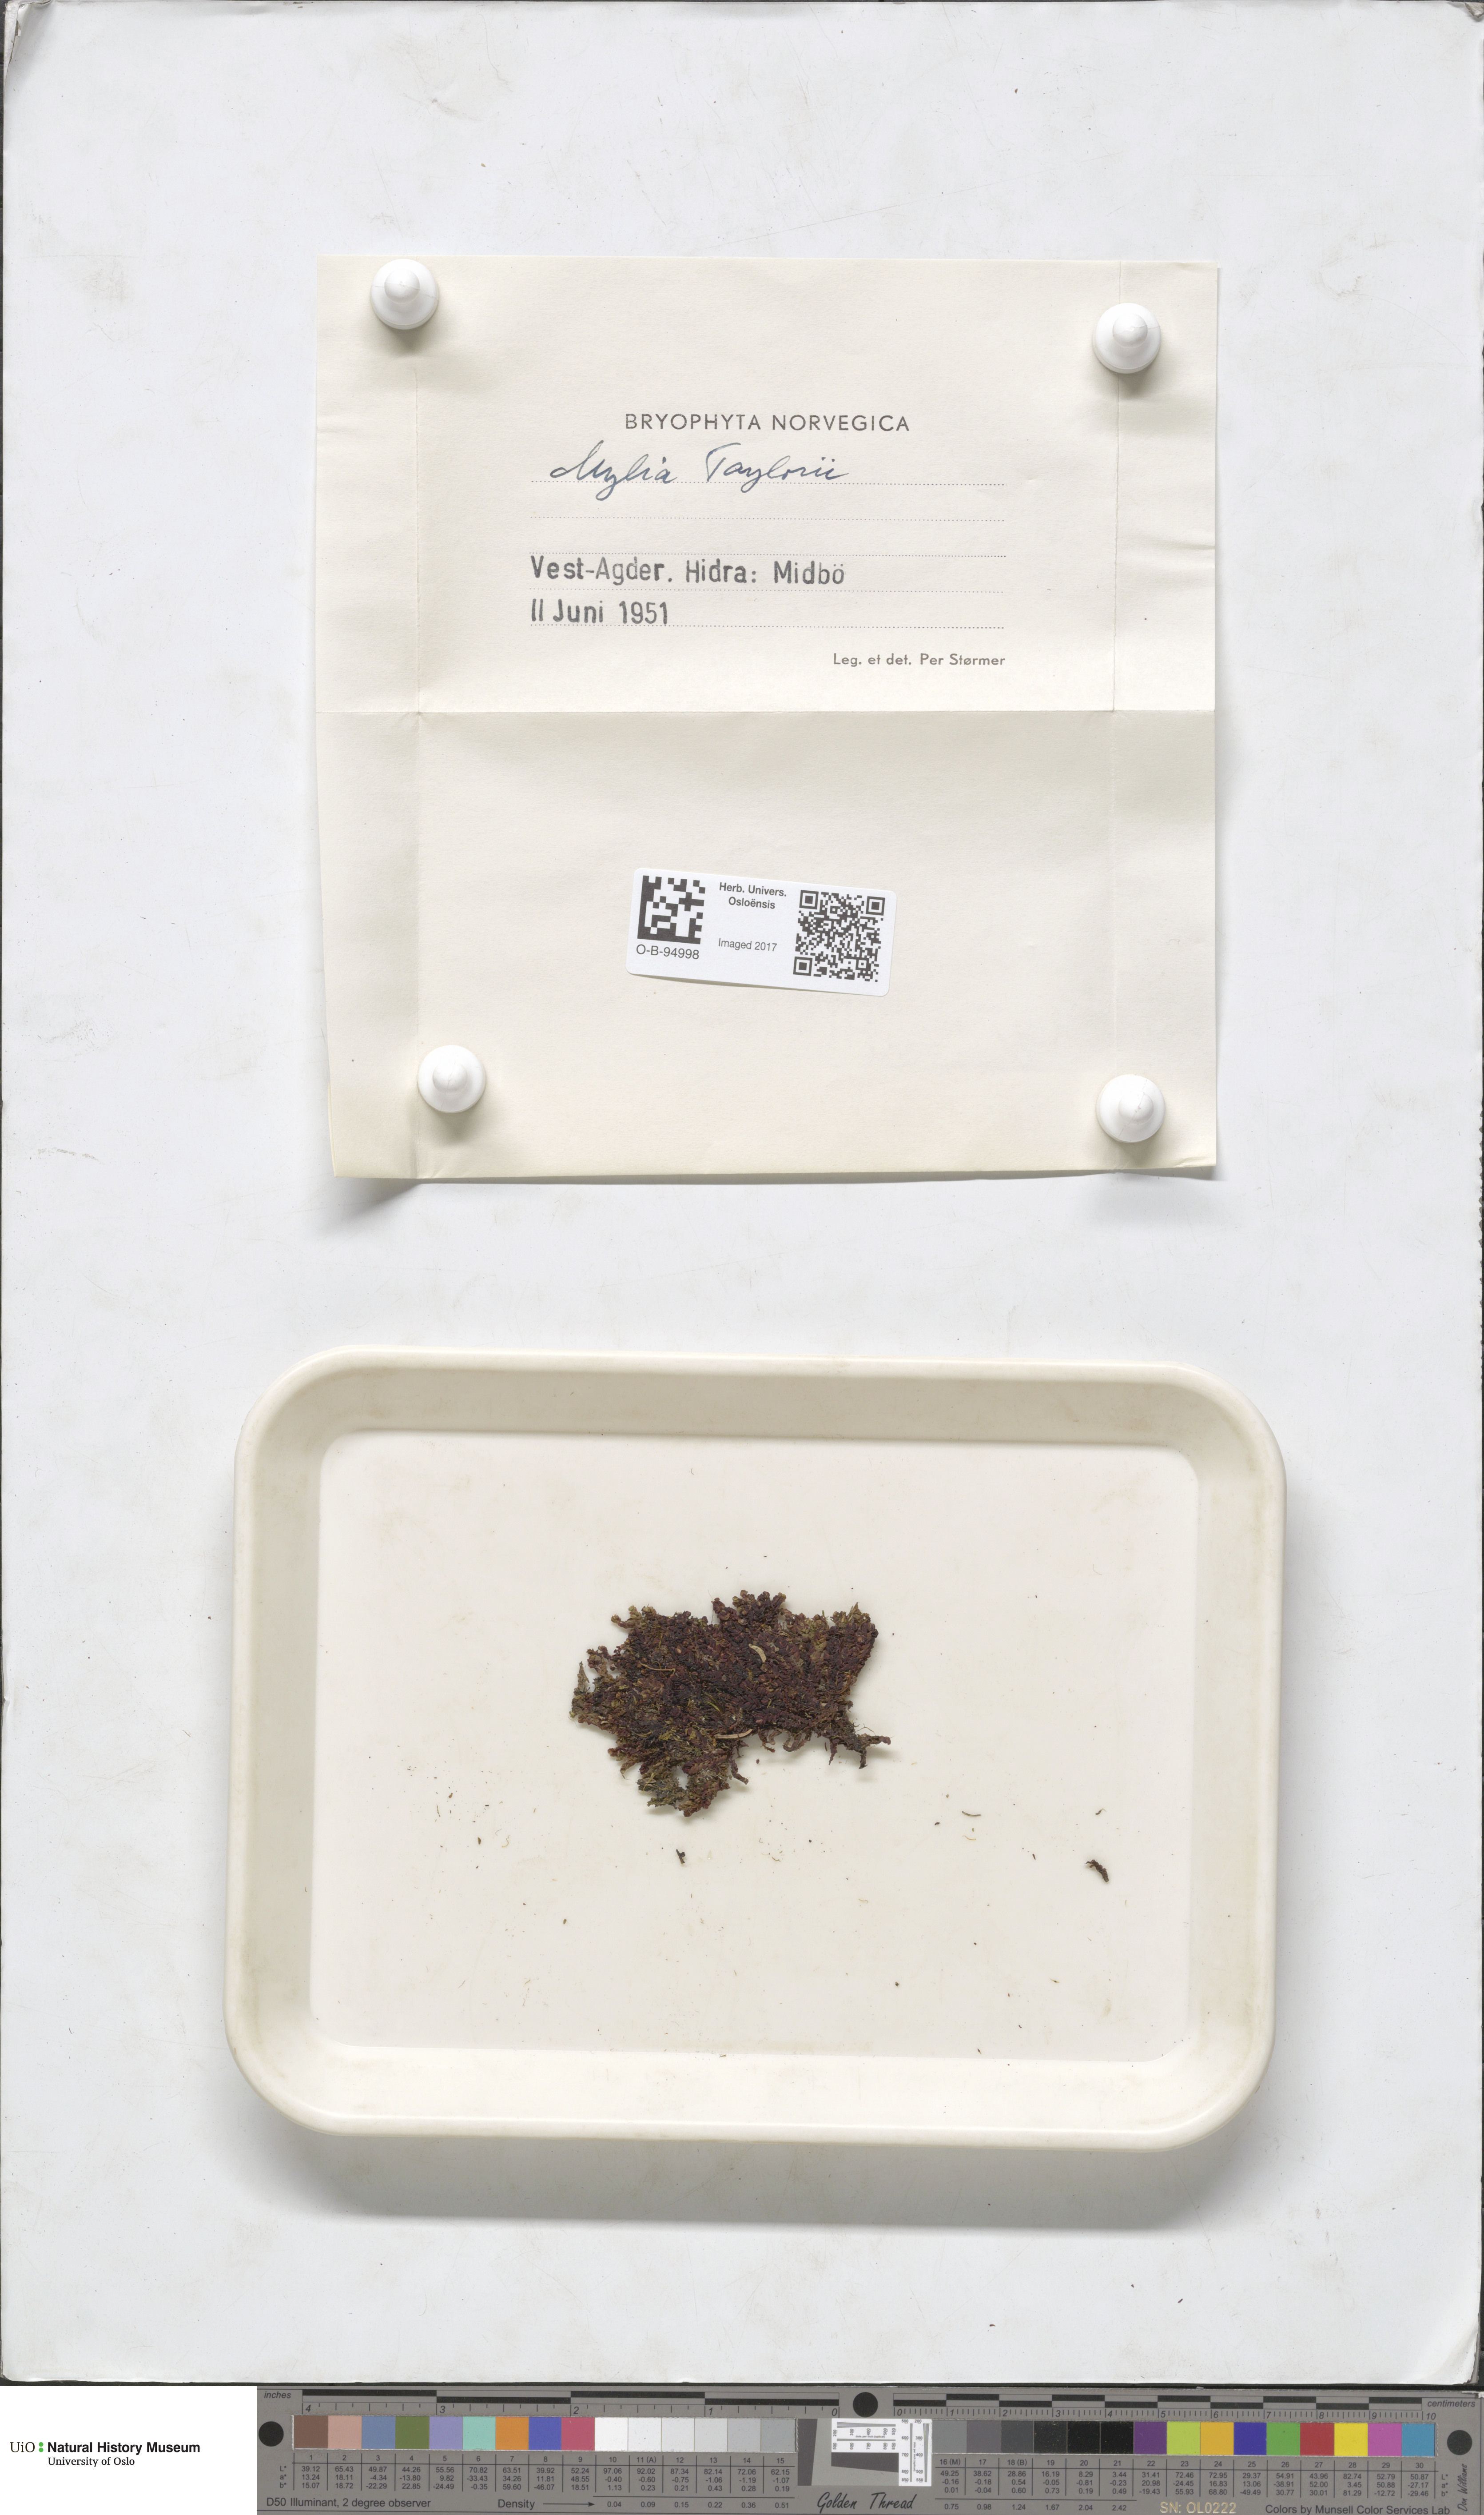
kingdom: Plantae
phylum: Marchantiophyta
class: Jungermanniopsida
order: Jungermanniales
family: Myliaceae
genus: Mylia
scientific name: Mylia taylorii
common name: Taylor s flapwort
